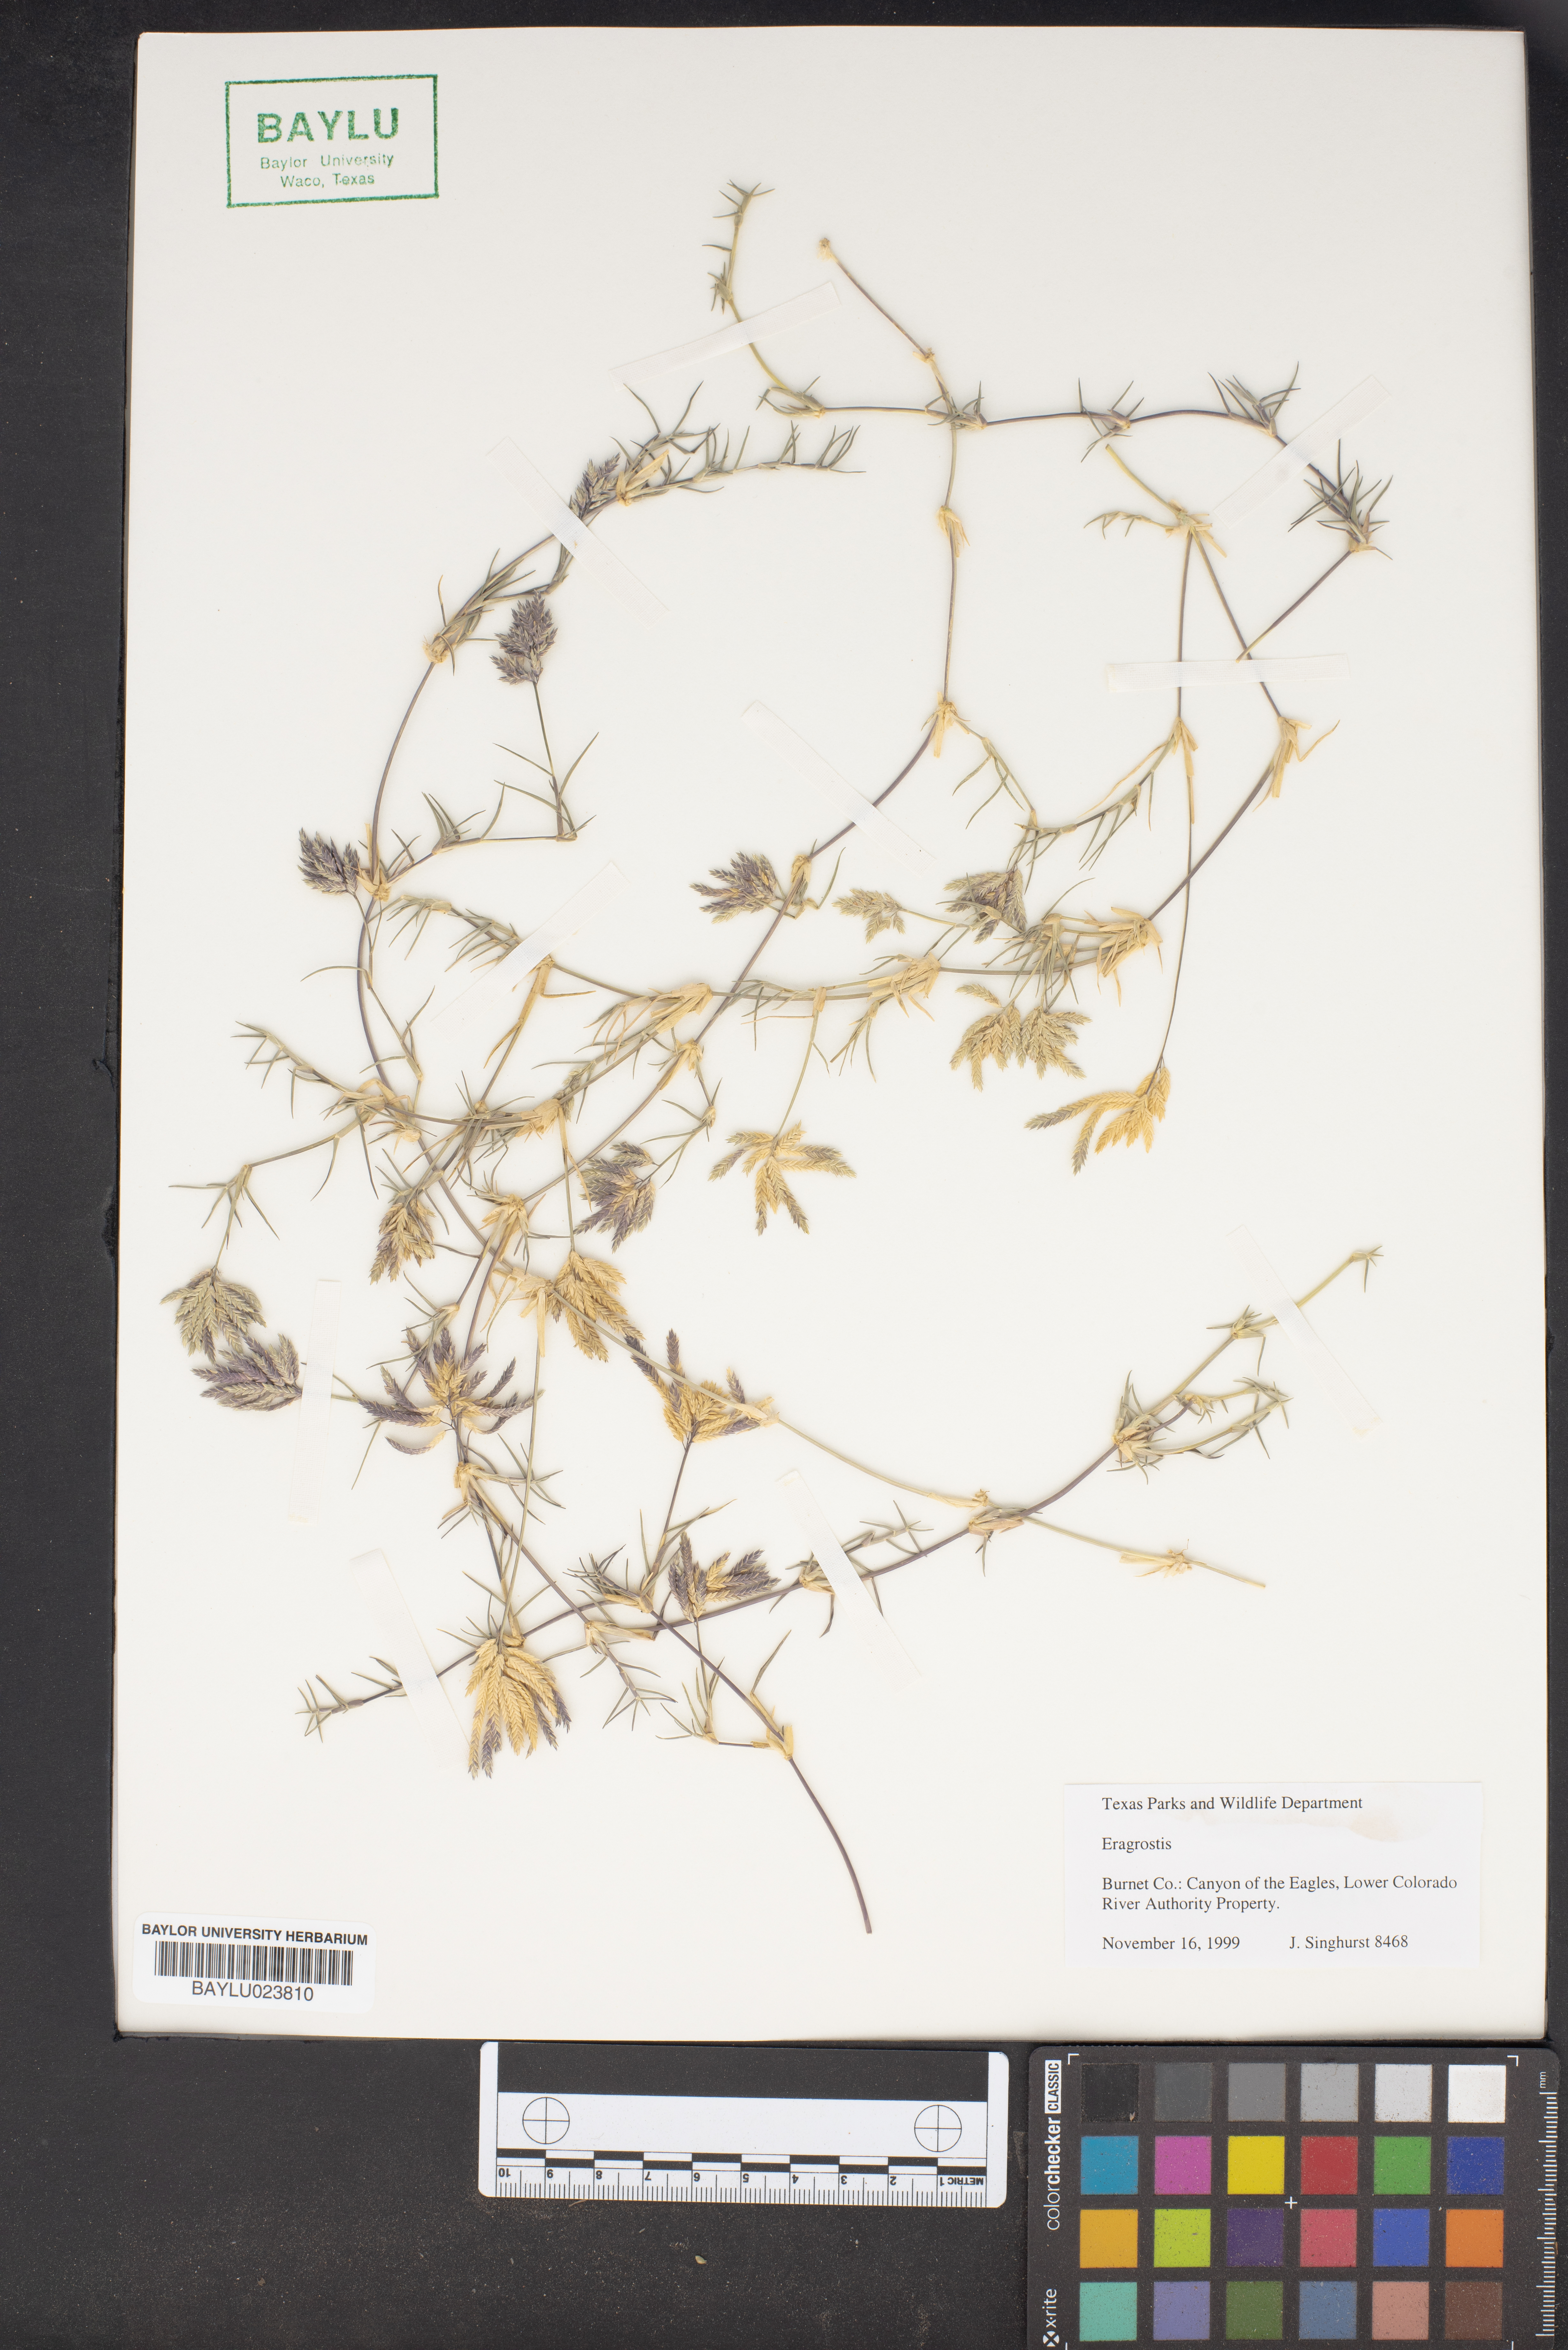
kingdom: Plantae
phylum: Tracheophyta
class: Liliopsida
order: Poales
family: Poaceae
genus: Eragrostis
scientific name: Eragrostis
